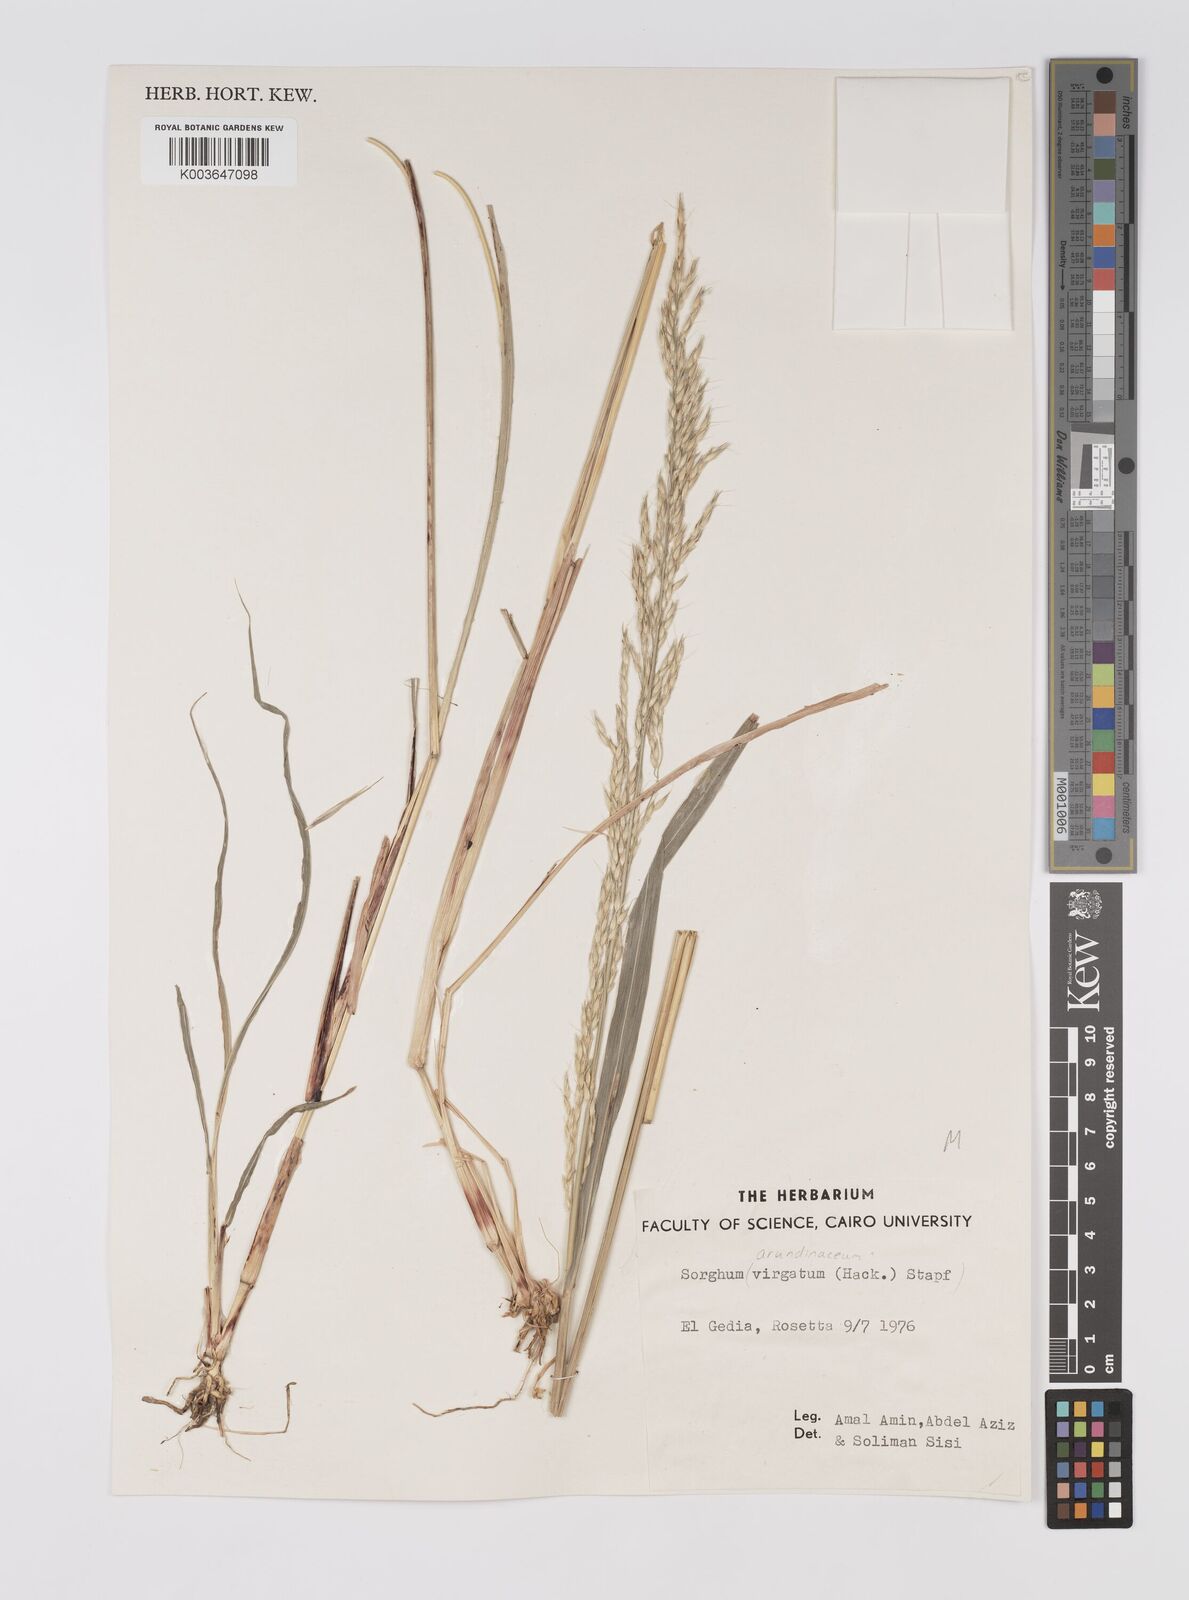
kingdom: Plantae
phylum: Tracheophyta
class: Liliopsida
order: Poales
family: Poaceae
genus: Sorghum
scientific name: Sorghum virgatum
